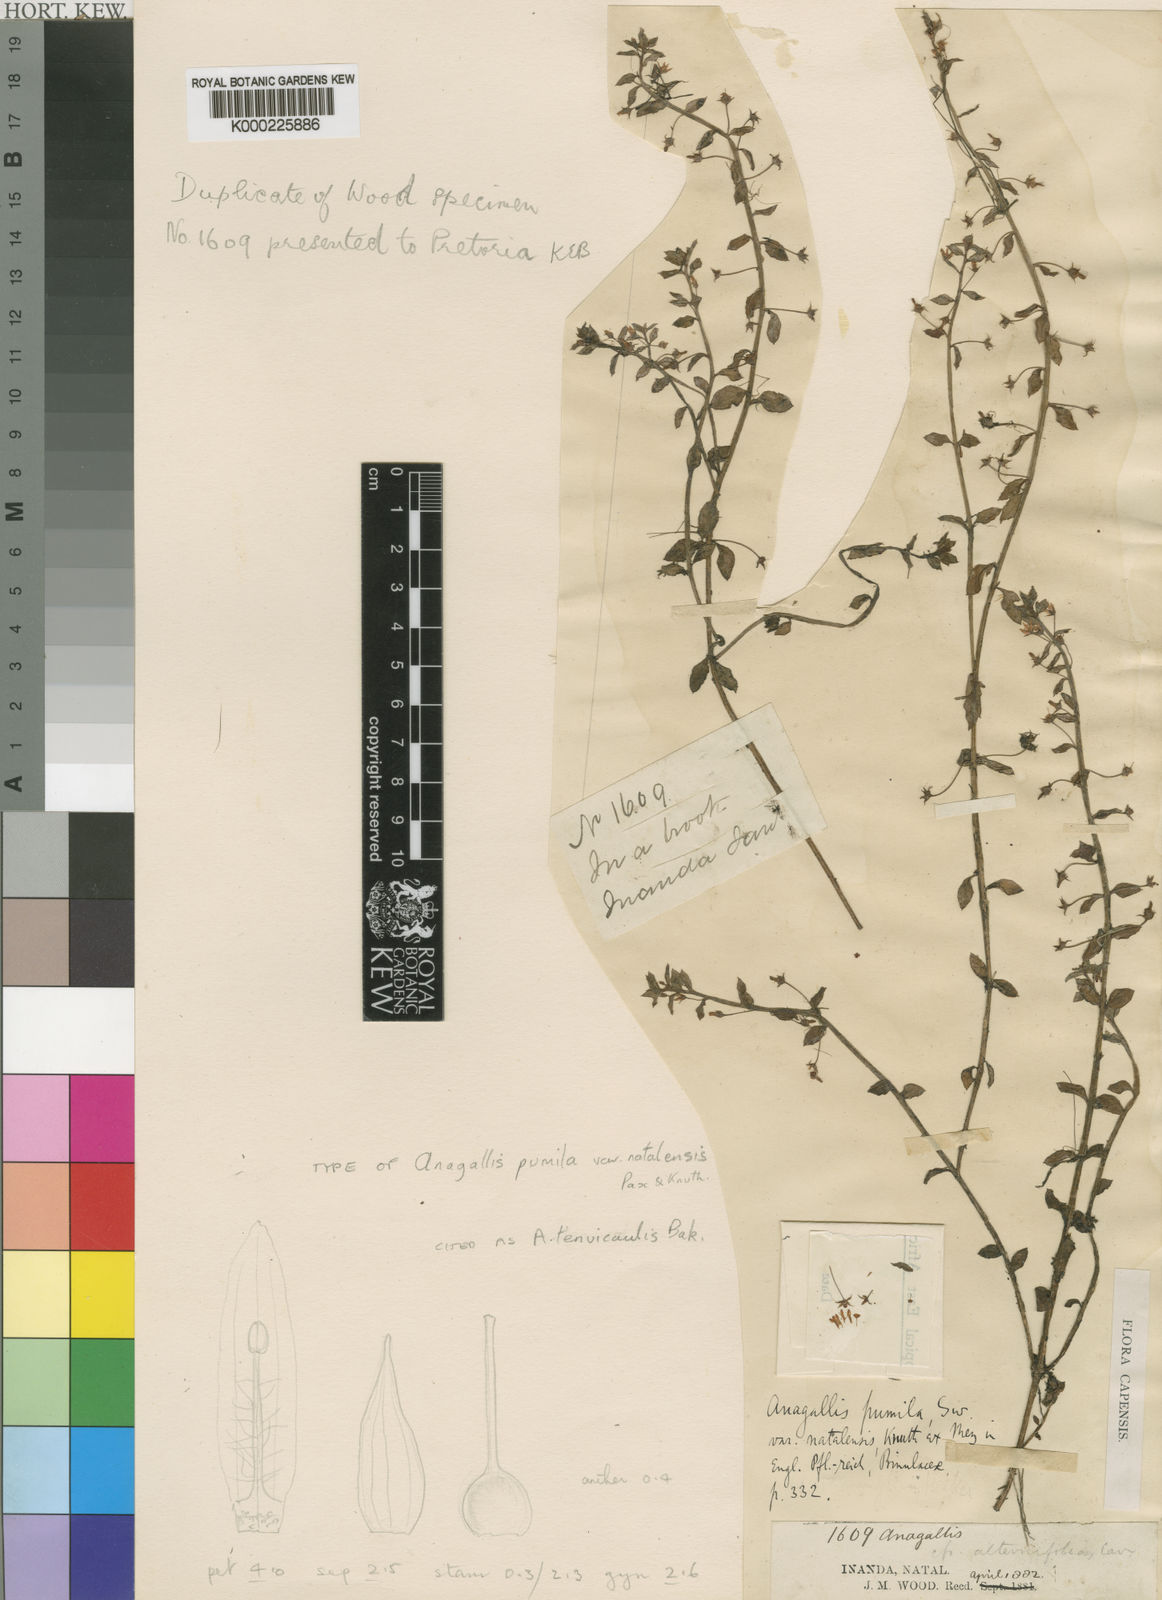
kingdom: Plantae
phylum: Tracheophyta
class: Magnoliopsida
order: Ericales
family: Primulaceae
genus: Lysimachia
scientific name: Lysimachia tenuicaulis
